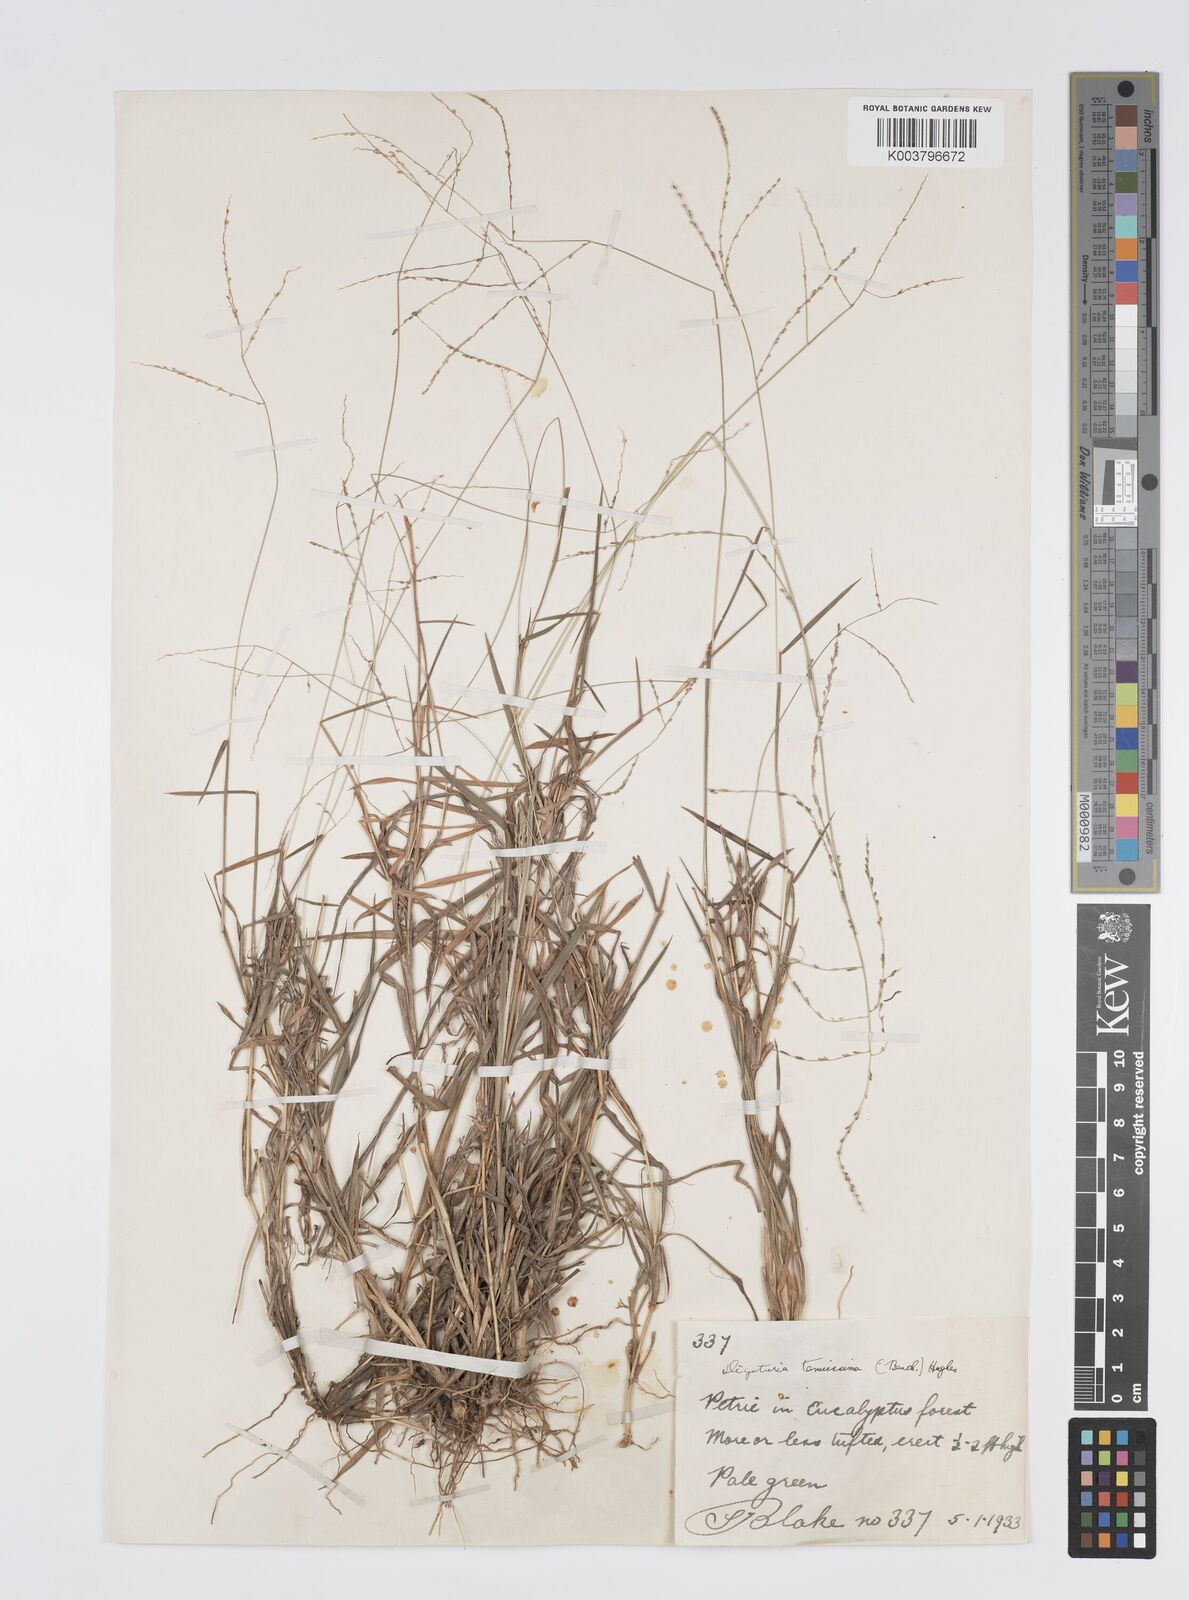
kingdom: Plantae
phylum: Tracheophyta
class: Liliopsida
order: Poales
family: Poaceae
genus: Digitaria
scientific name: Digitaria ramularis
